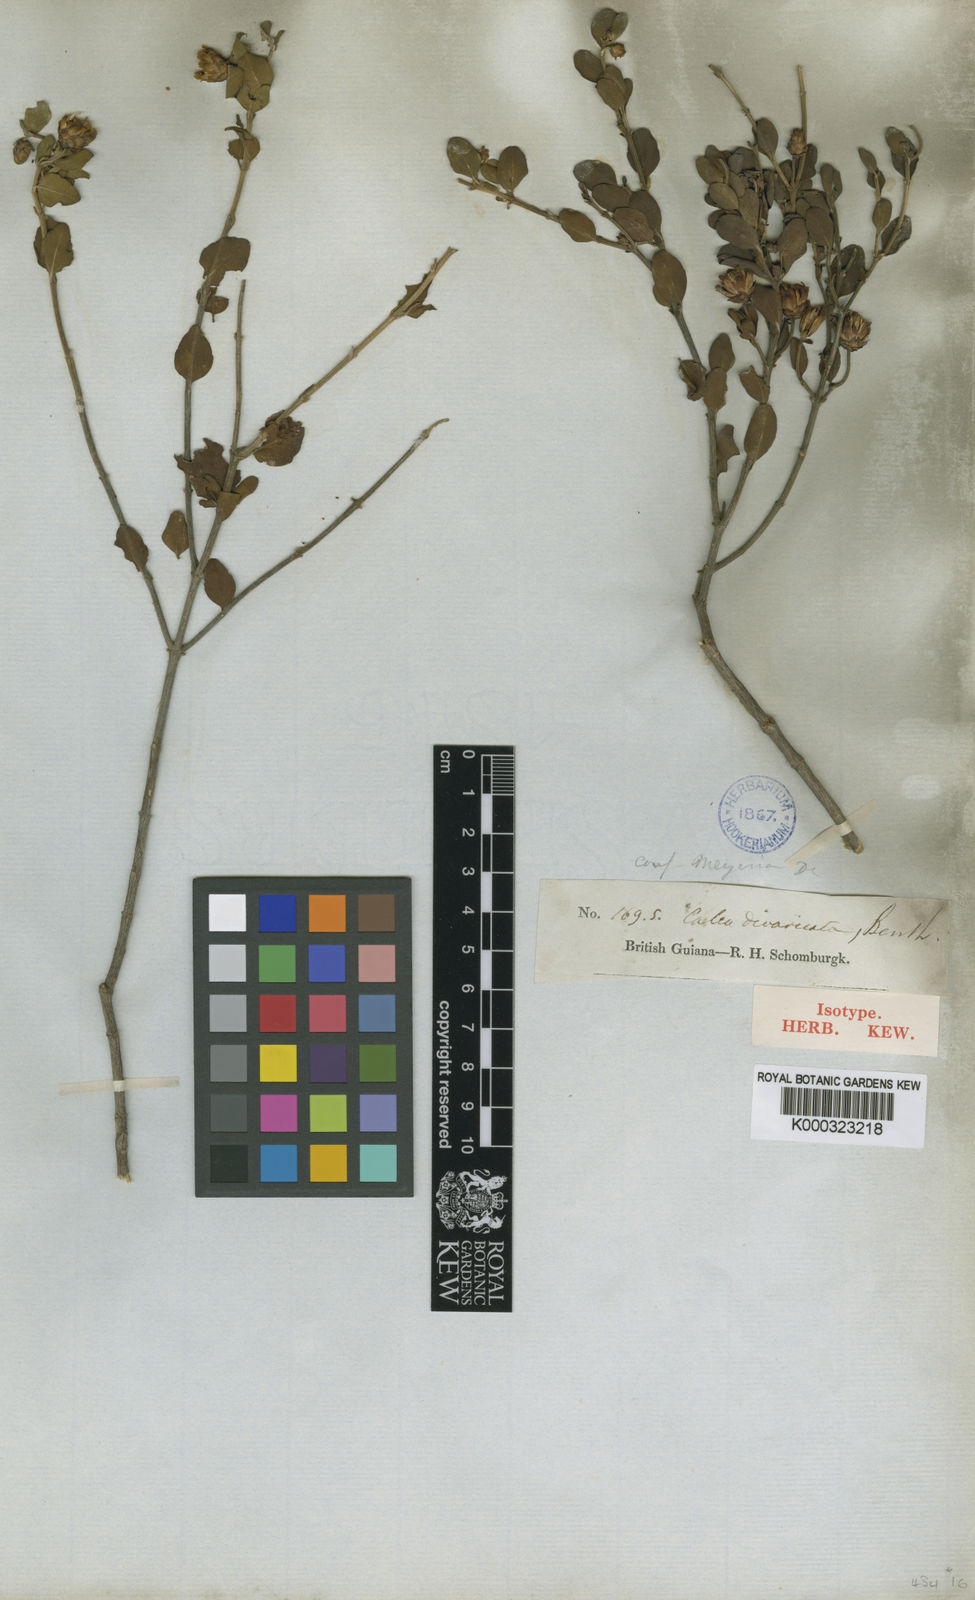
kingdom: Plantae
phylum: Tracheophyta
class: Magnoliopsida
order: Asterales
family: Asteraceae
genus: Calea
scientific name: Calea divaricata
